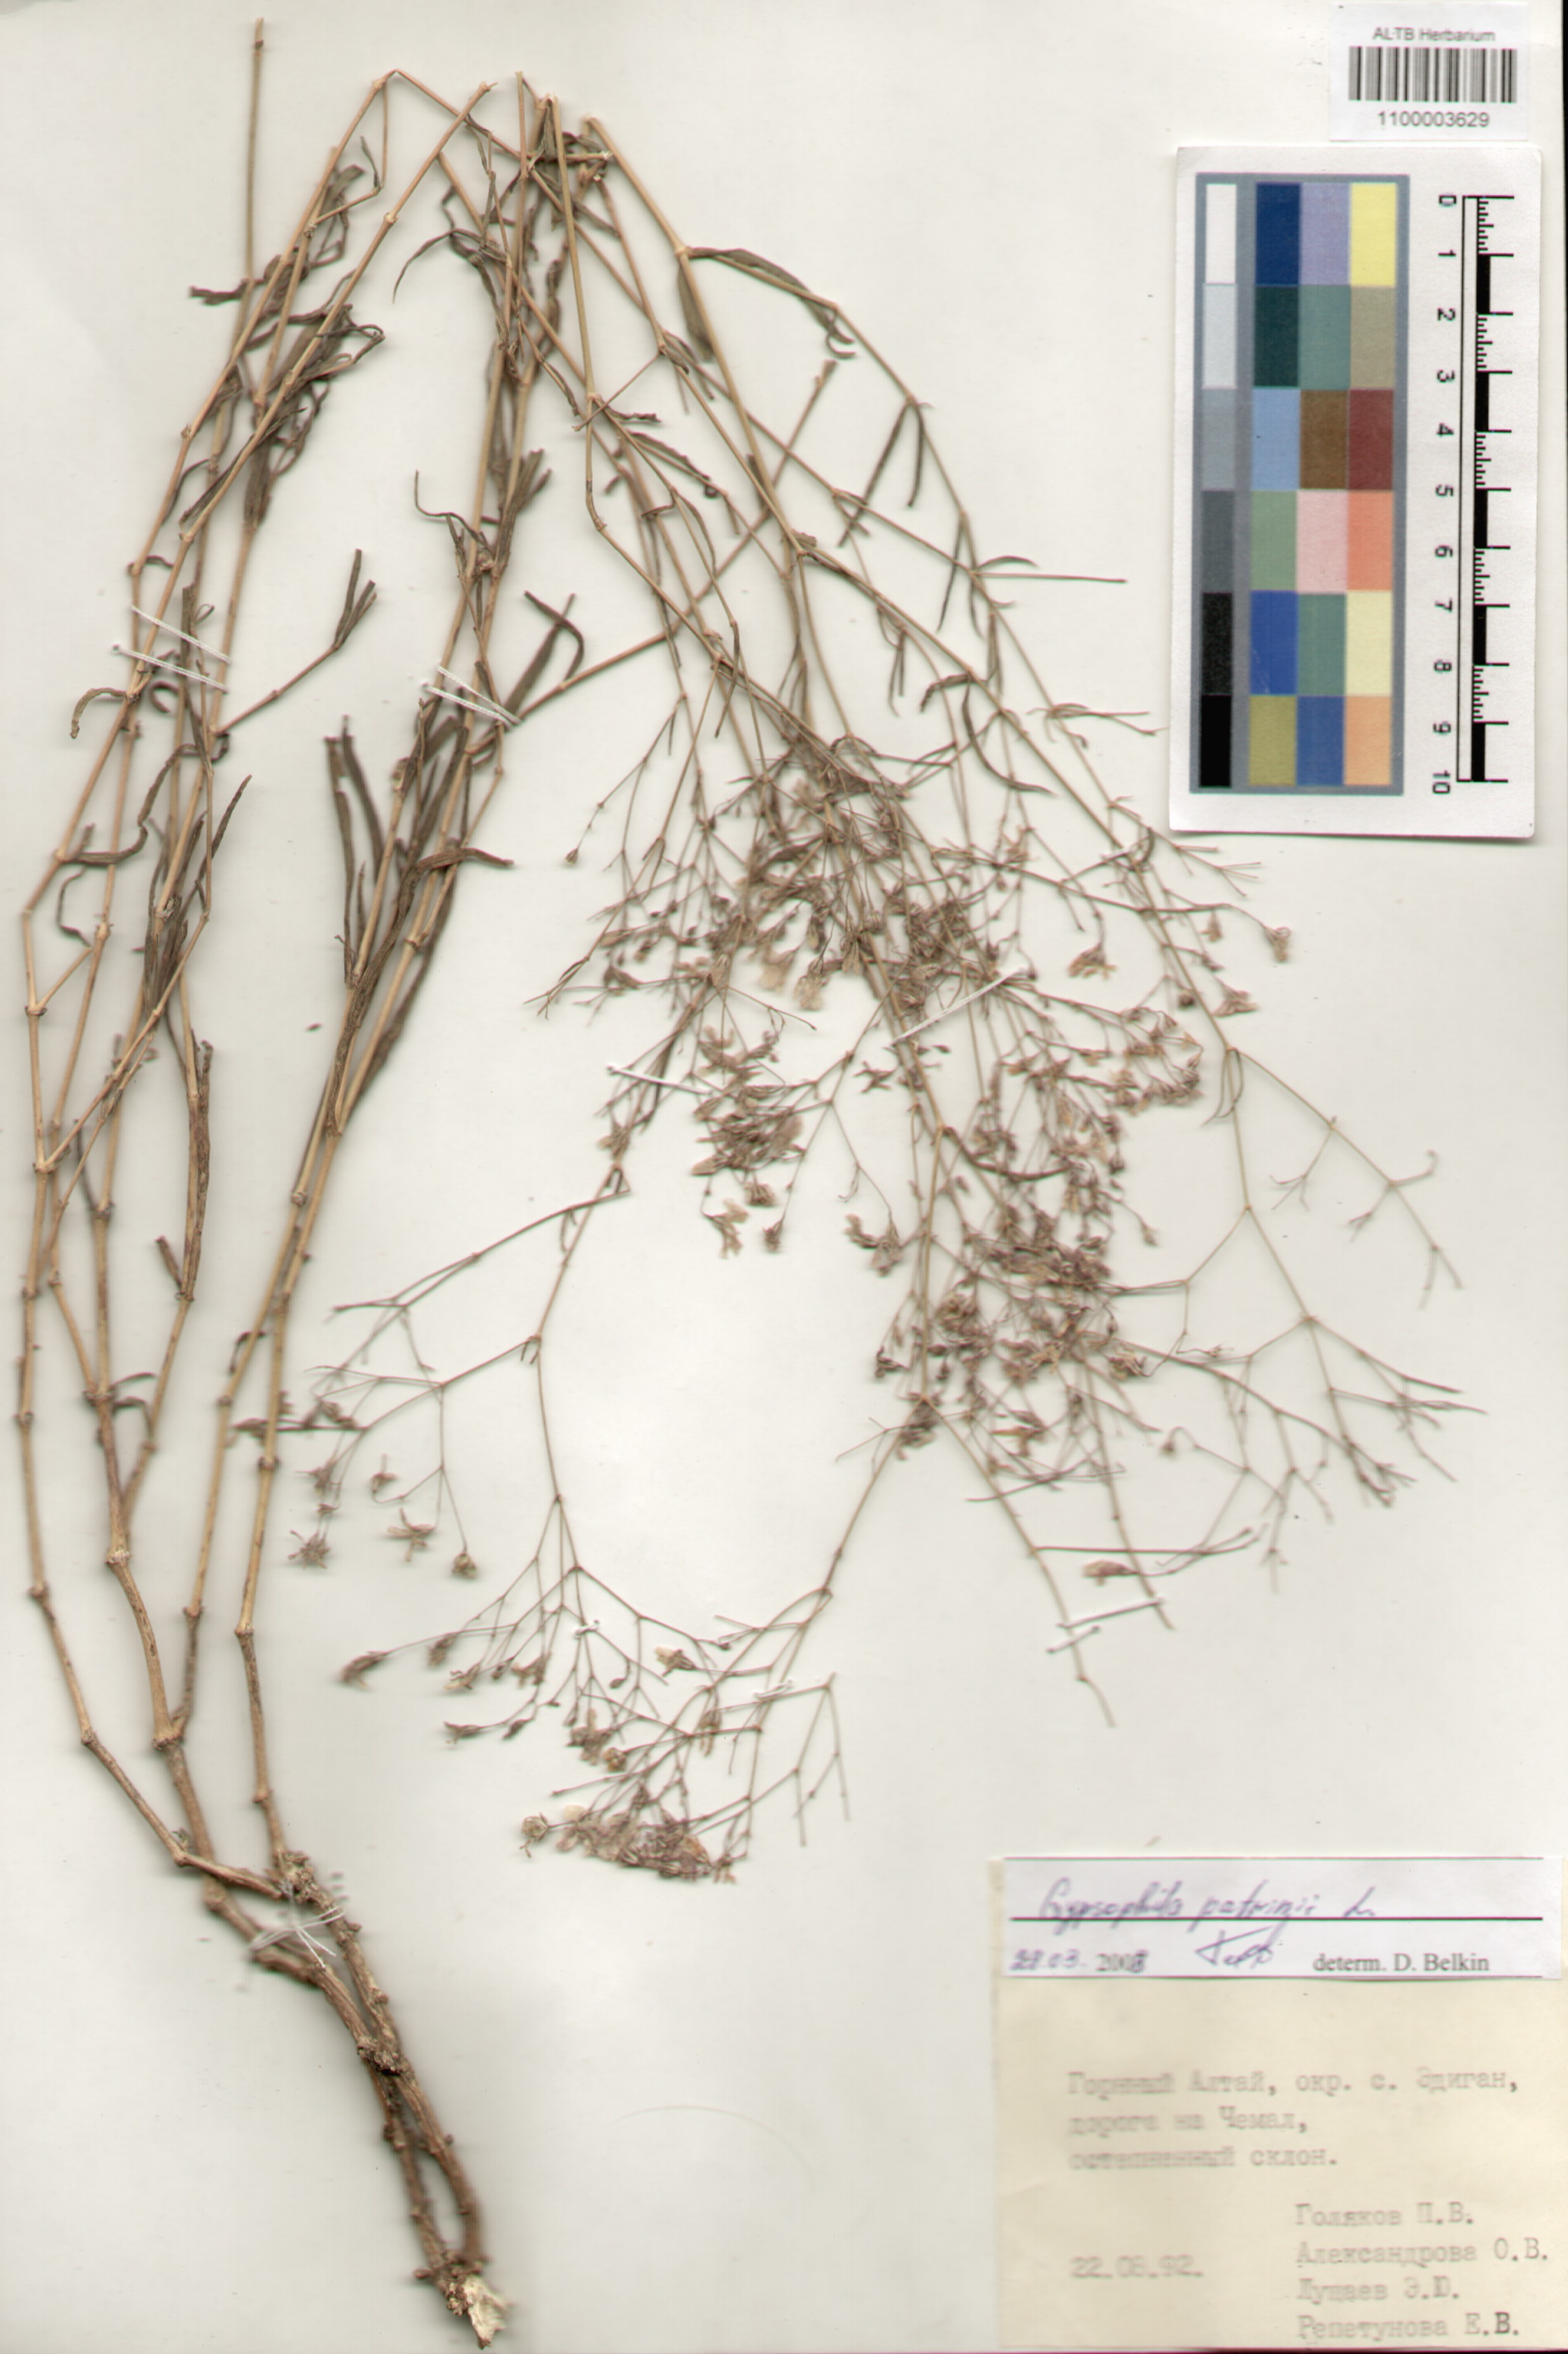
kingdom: Plantae
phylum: Tracheophyta
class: Magnoliopsida
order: Caryophyllales
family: Caryophyllaceae
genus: Gypsophila
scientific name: Gypsophila patrinii
